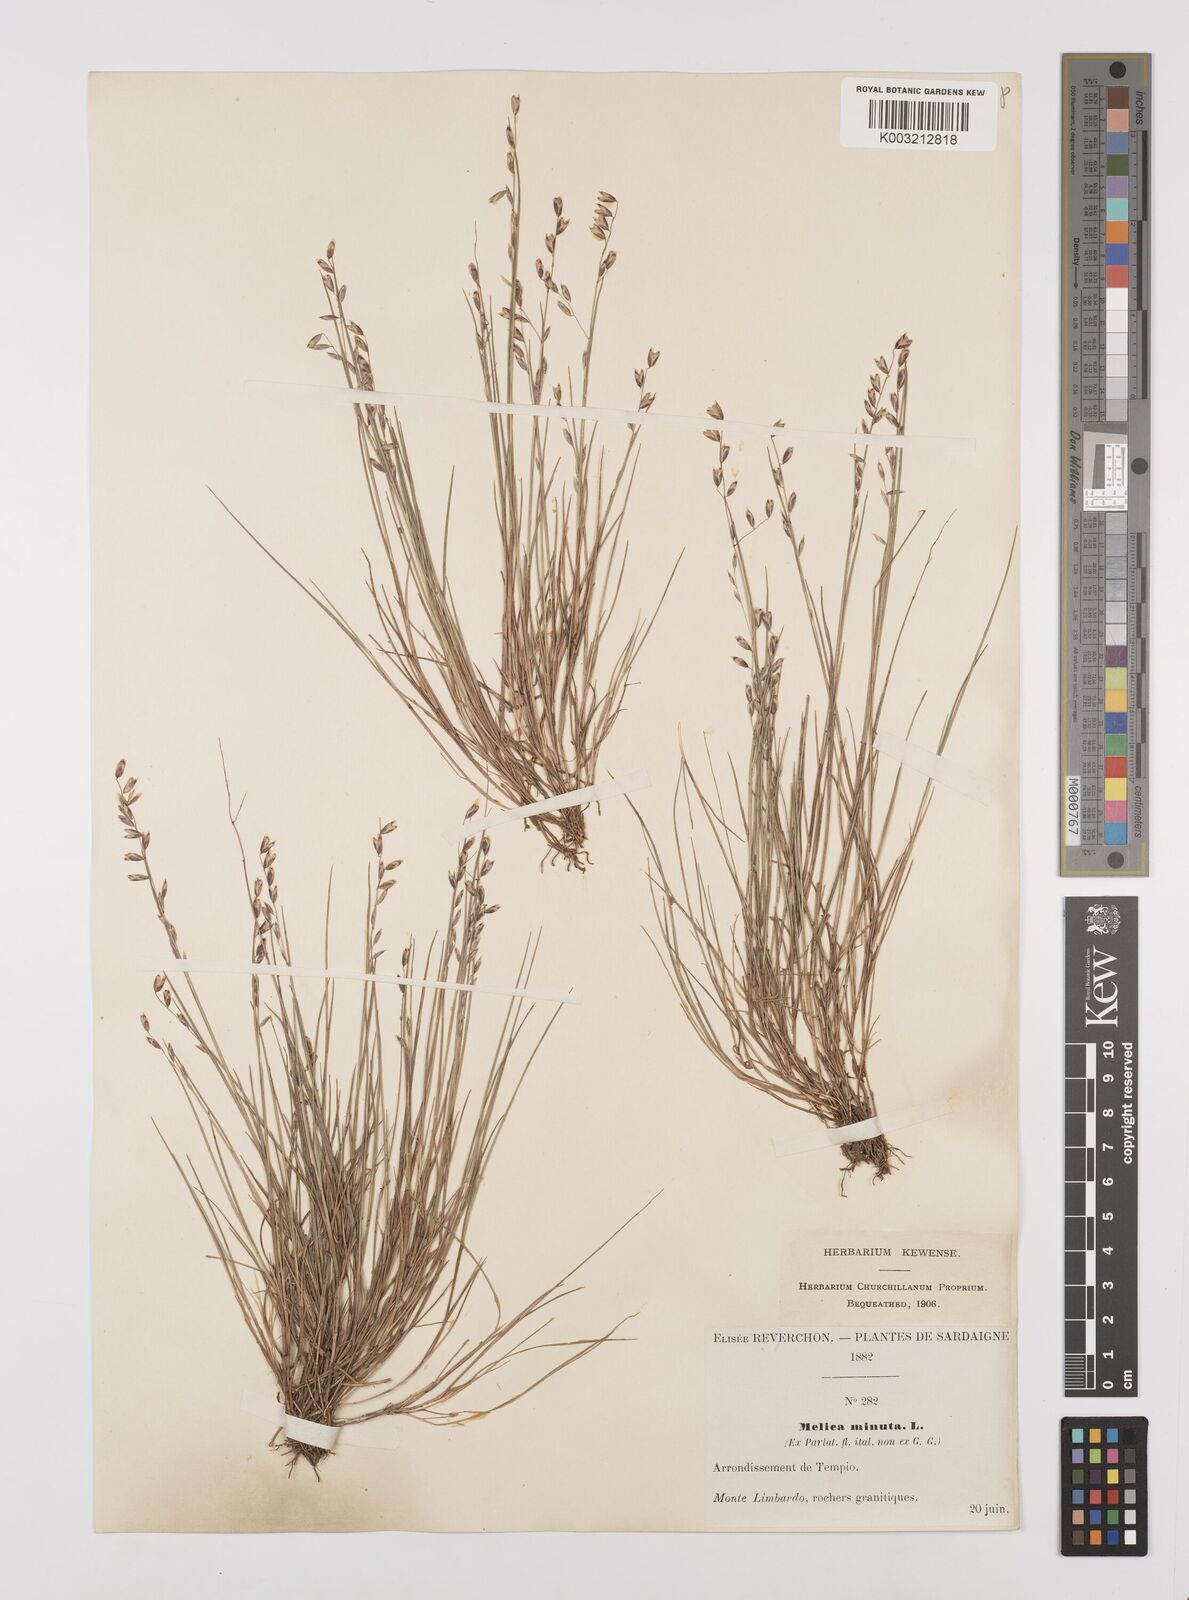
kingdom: Plantae
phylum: Tracheophyta
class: Liliopsida
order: Poales
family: Poaceae
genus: Melica
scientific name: Melica minuta
